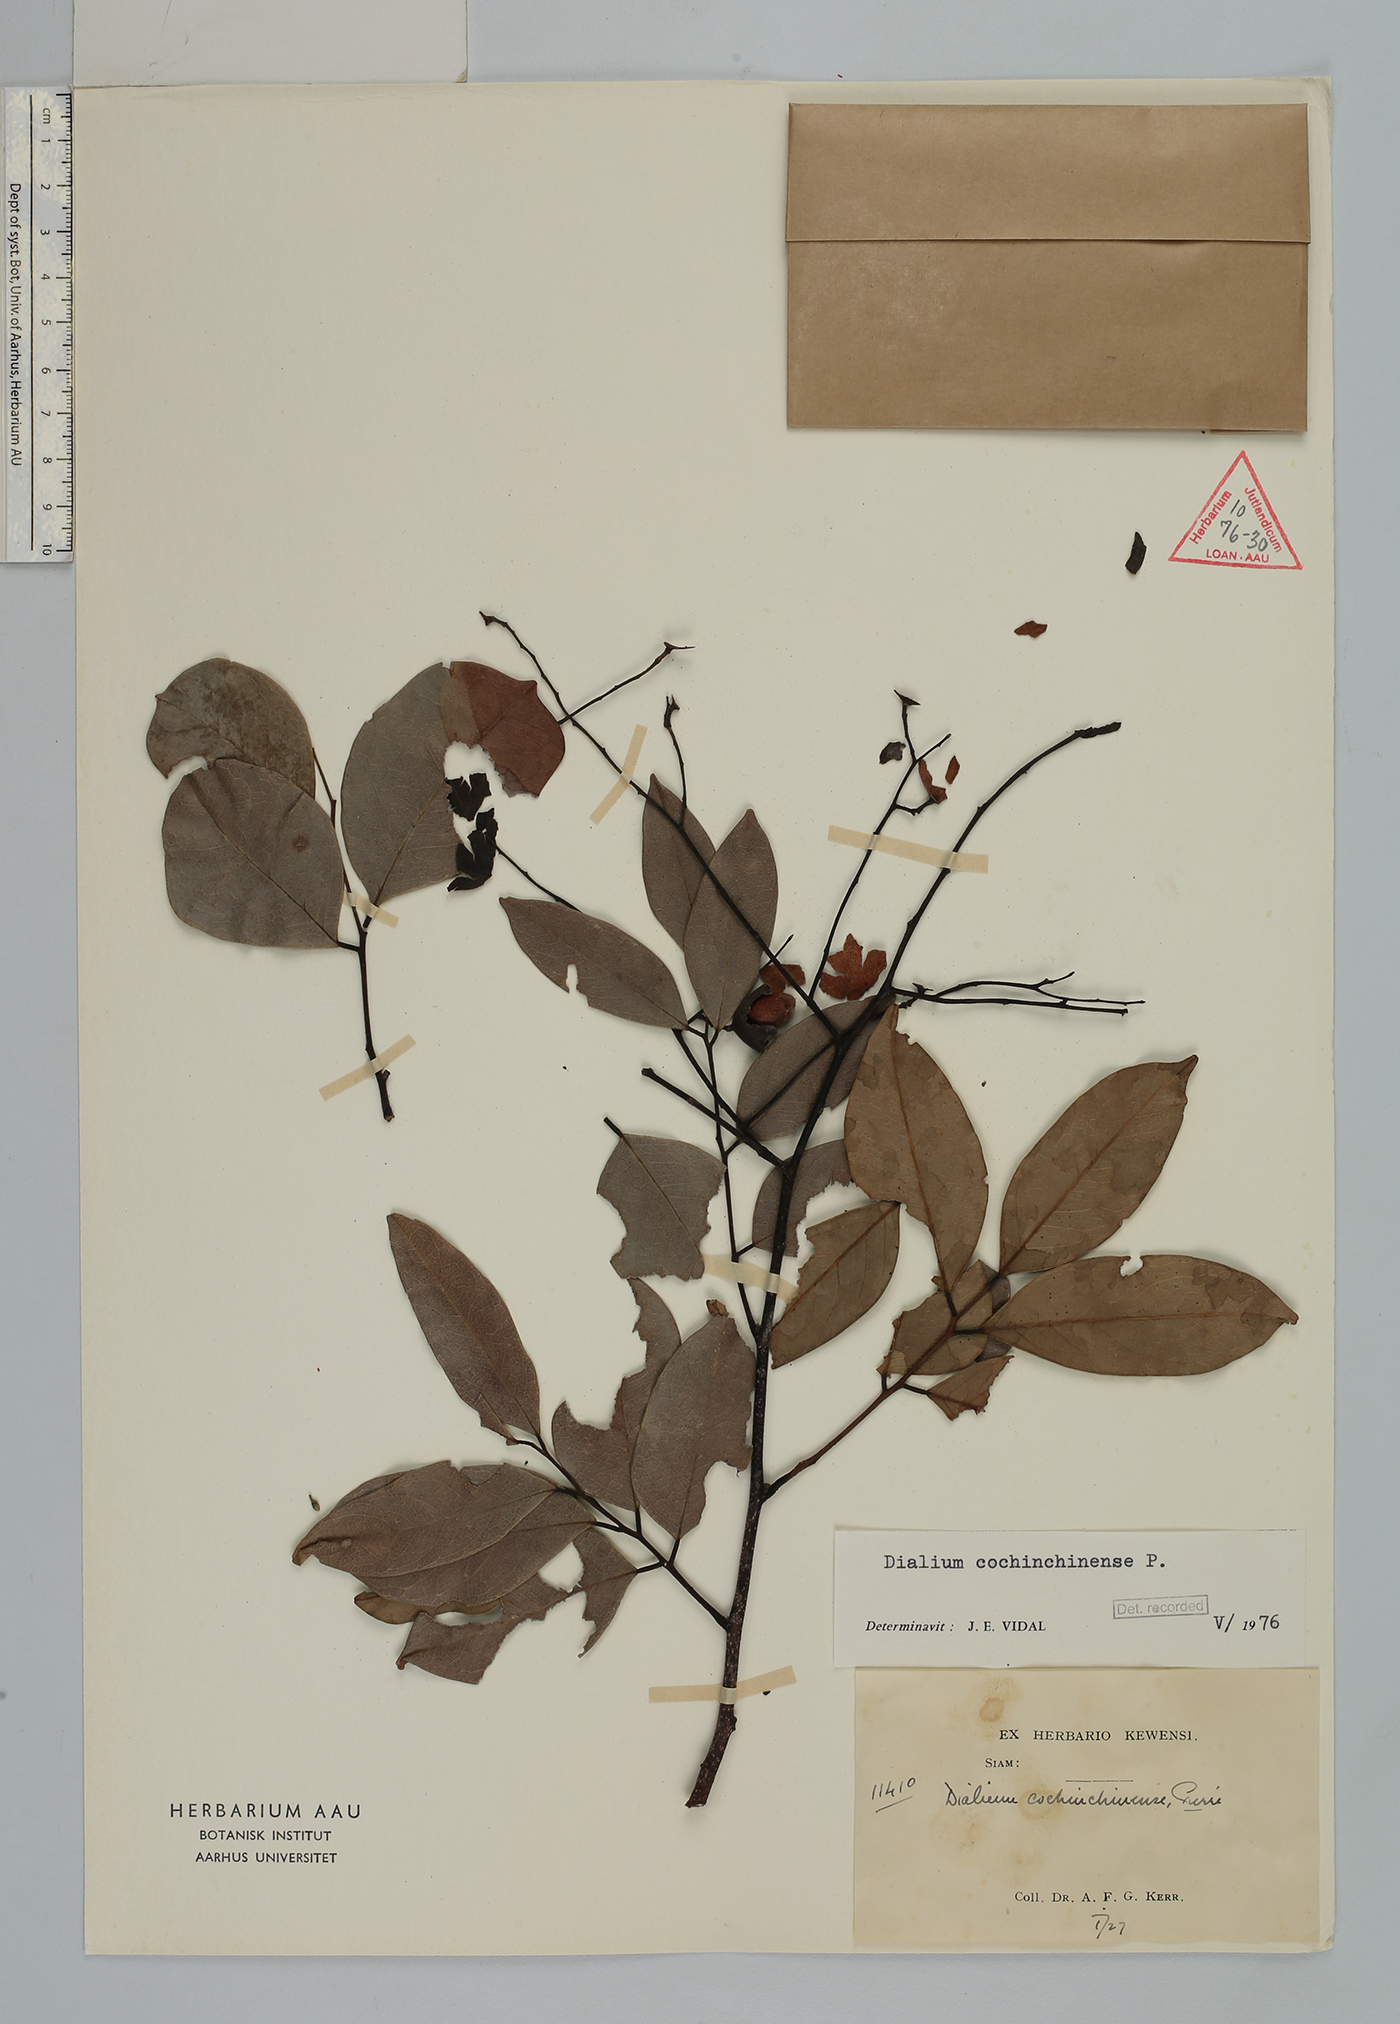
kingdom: Plantae
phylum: Tracheophyta
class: Magnoliopsida
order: Fabales
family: Fabaceae
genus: Dialium
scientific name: Dialium cochinchinense
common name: Velvet tamarind
